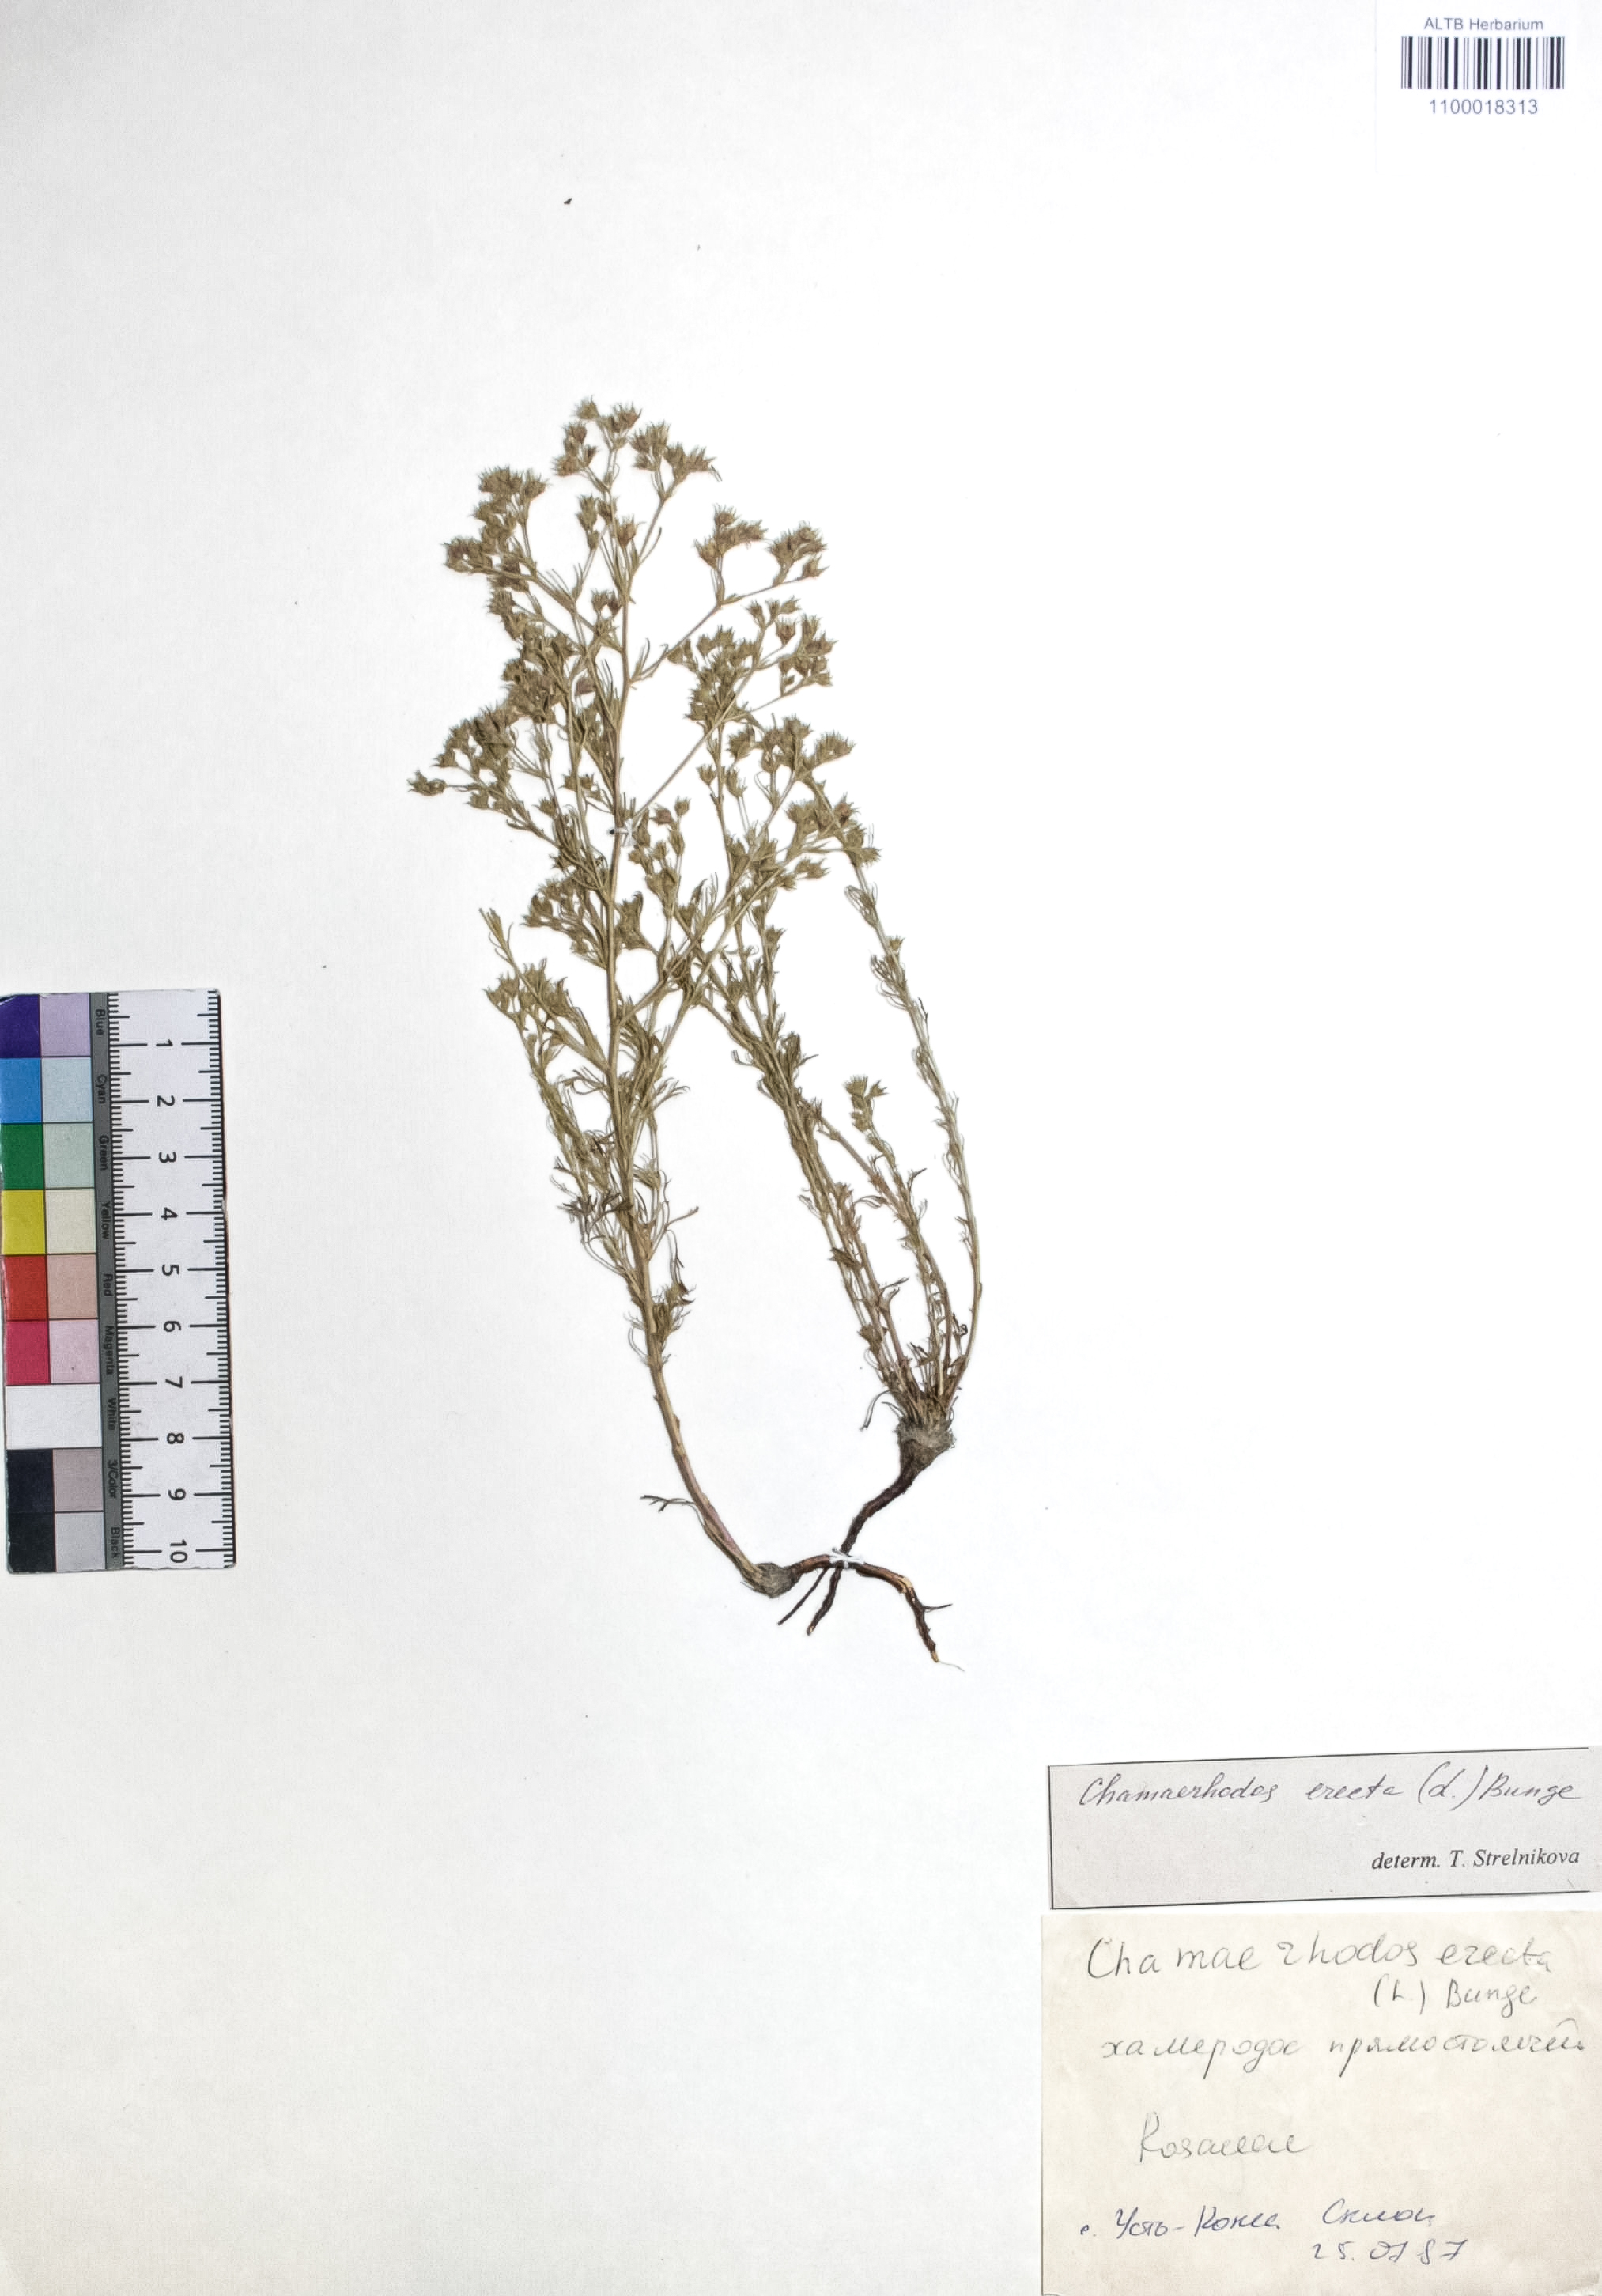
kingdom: Plantae
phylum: Tracheophyta
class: Magnoliopsida
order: Rosales
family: Rosaceae
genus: Chamaerhodos
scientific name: Chamaerhodos erecta
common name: American chamaerhodos
